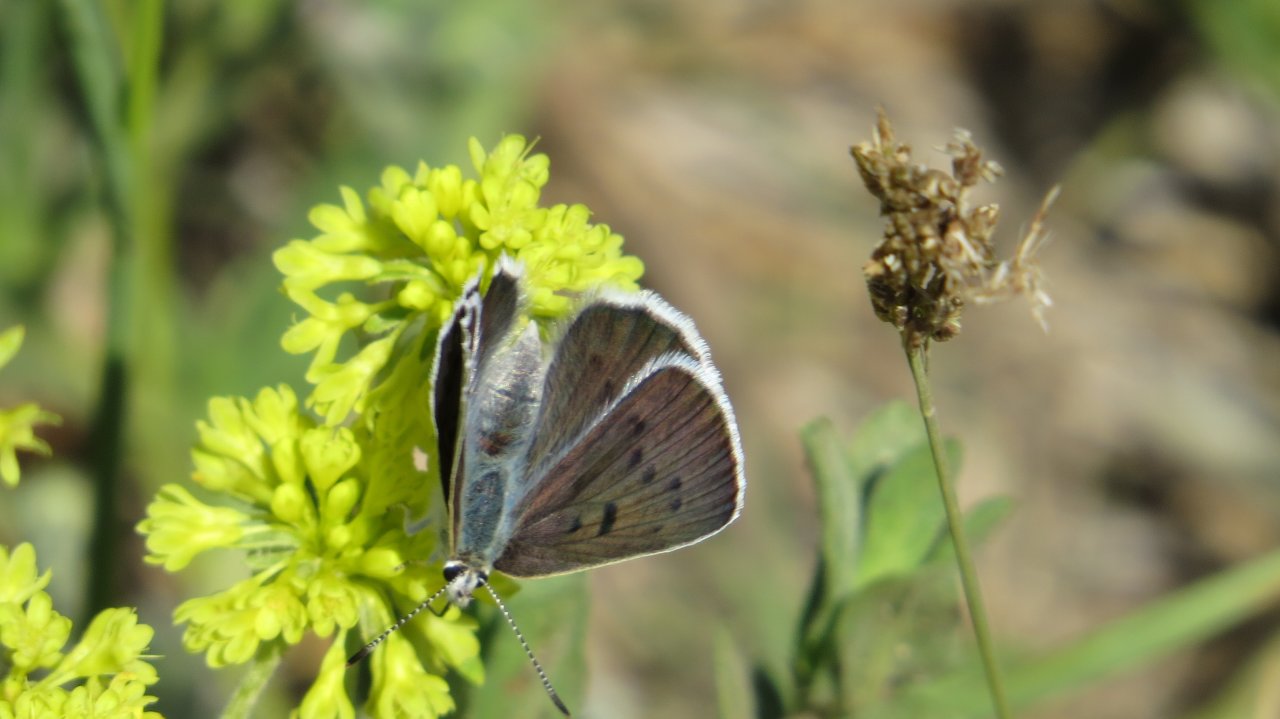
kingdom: Animalia
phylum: Arthropoda
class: Insecta
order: Lepidoptera
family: Lycaenidae
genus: Lycaena
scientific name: Lycaena heteronea
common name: Blue Copper
